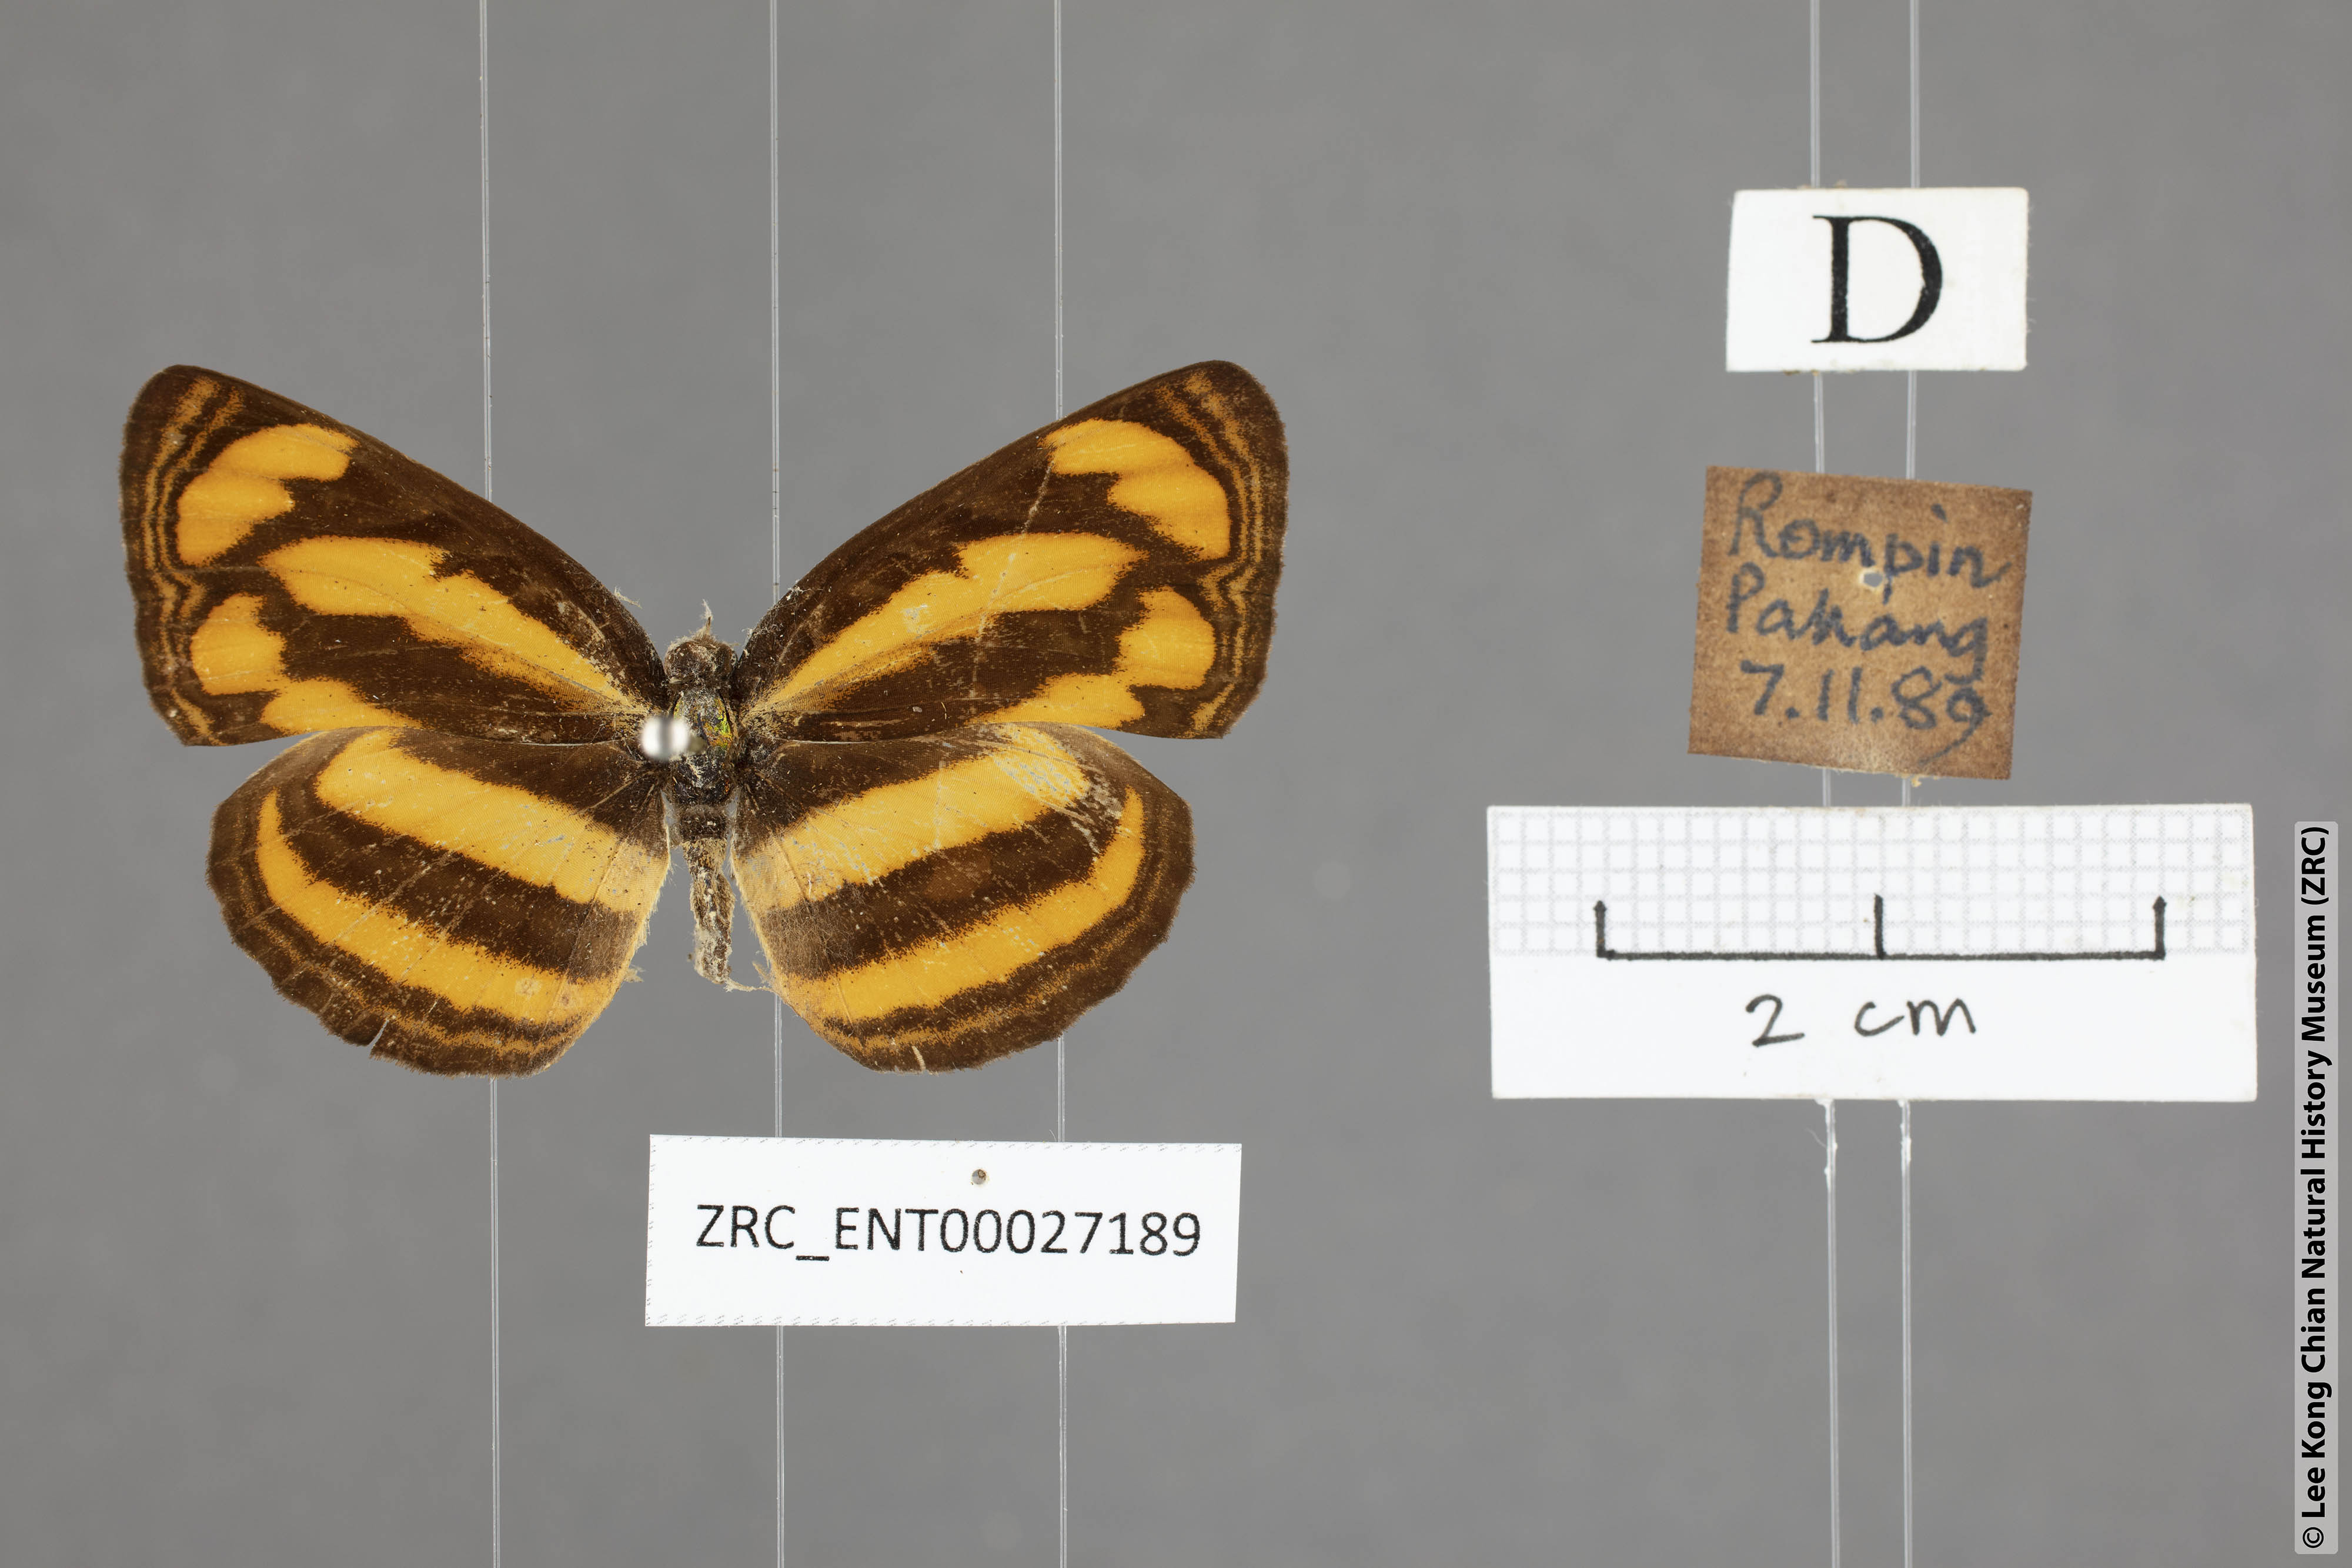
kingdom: Animalia
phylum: Arthropoda
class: Insecta
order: Lepidoptera
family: Nymphalidae
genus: Pantoporia
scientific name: Pantoporia paraka
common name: Perak lascar
